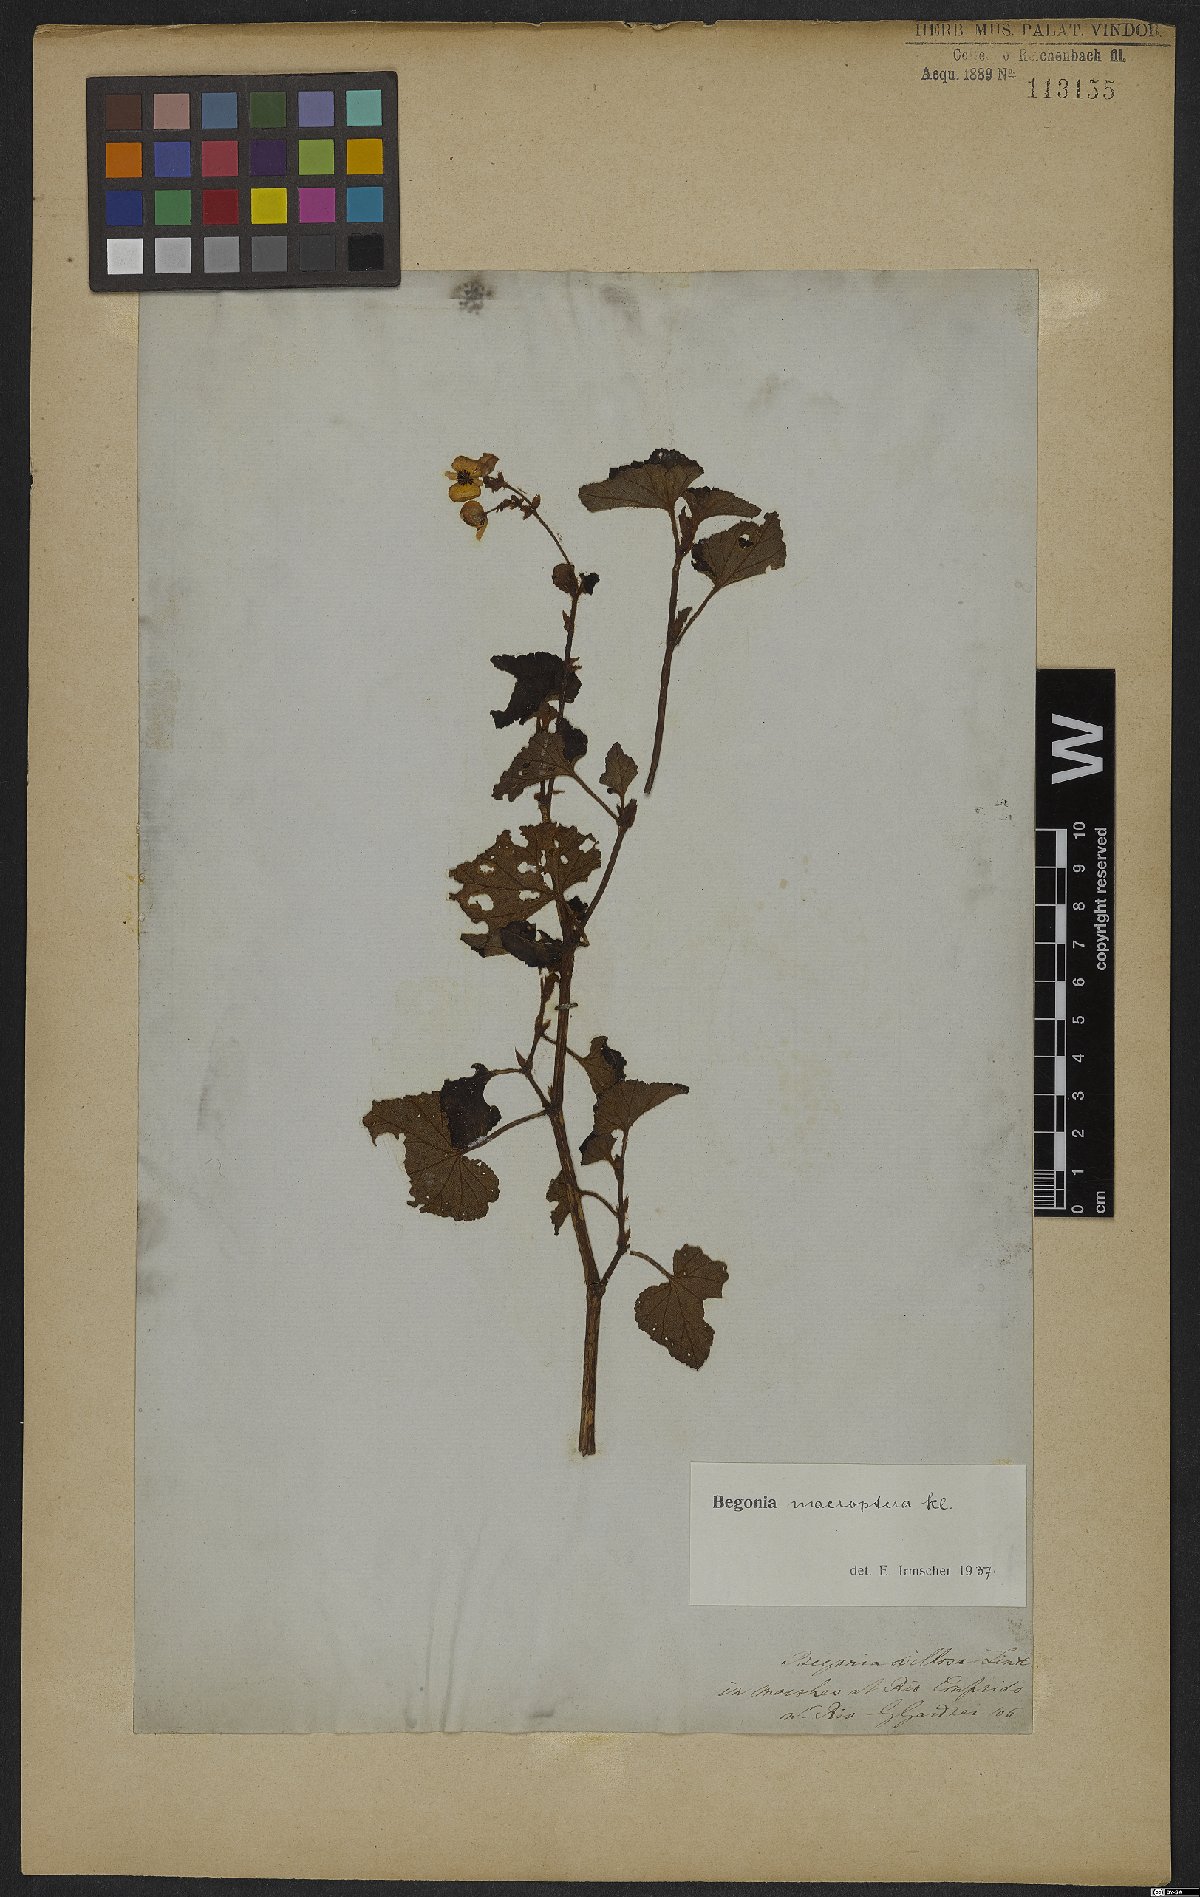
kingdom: Plantae
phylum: Tracheophyta
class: Magnoliopsida
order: Cucurbitales
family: Begoniaceae
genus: Begonia
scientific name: Begonia fischeri
